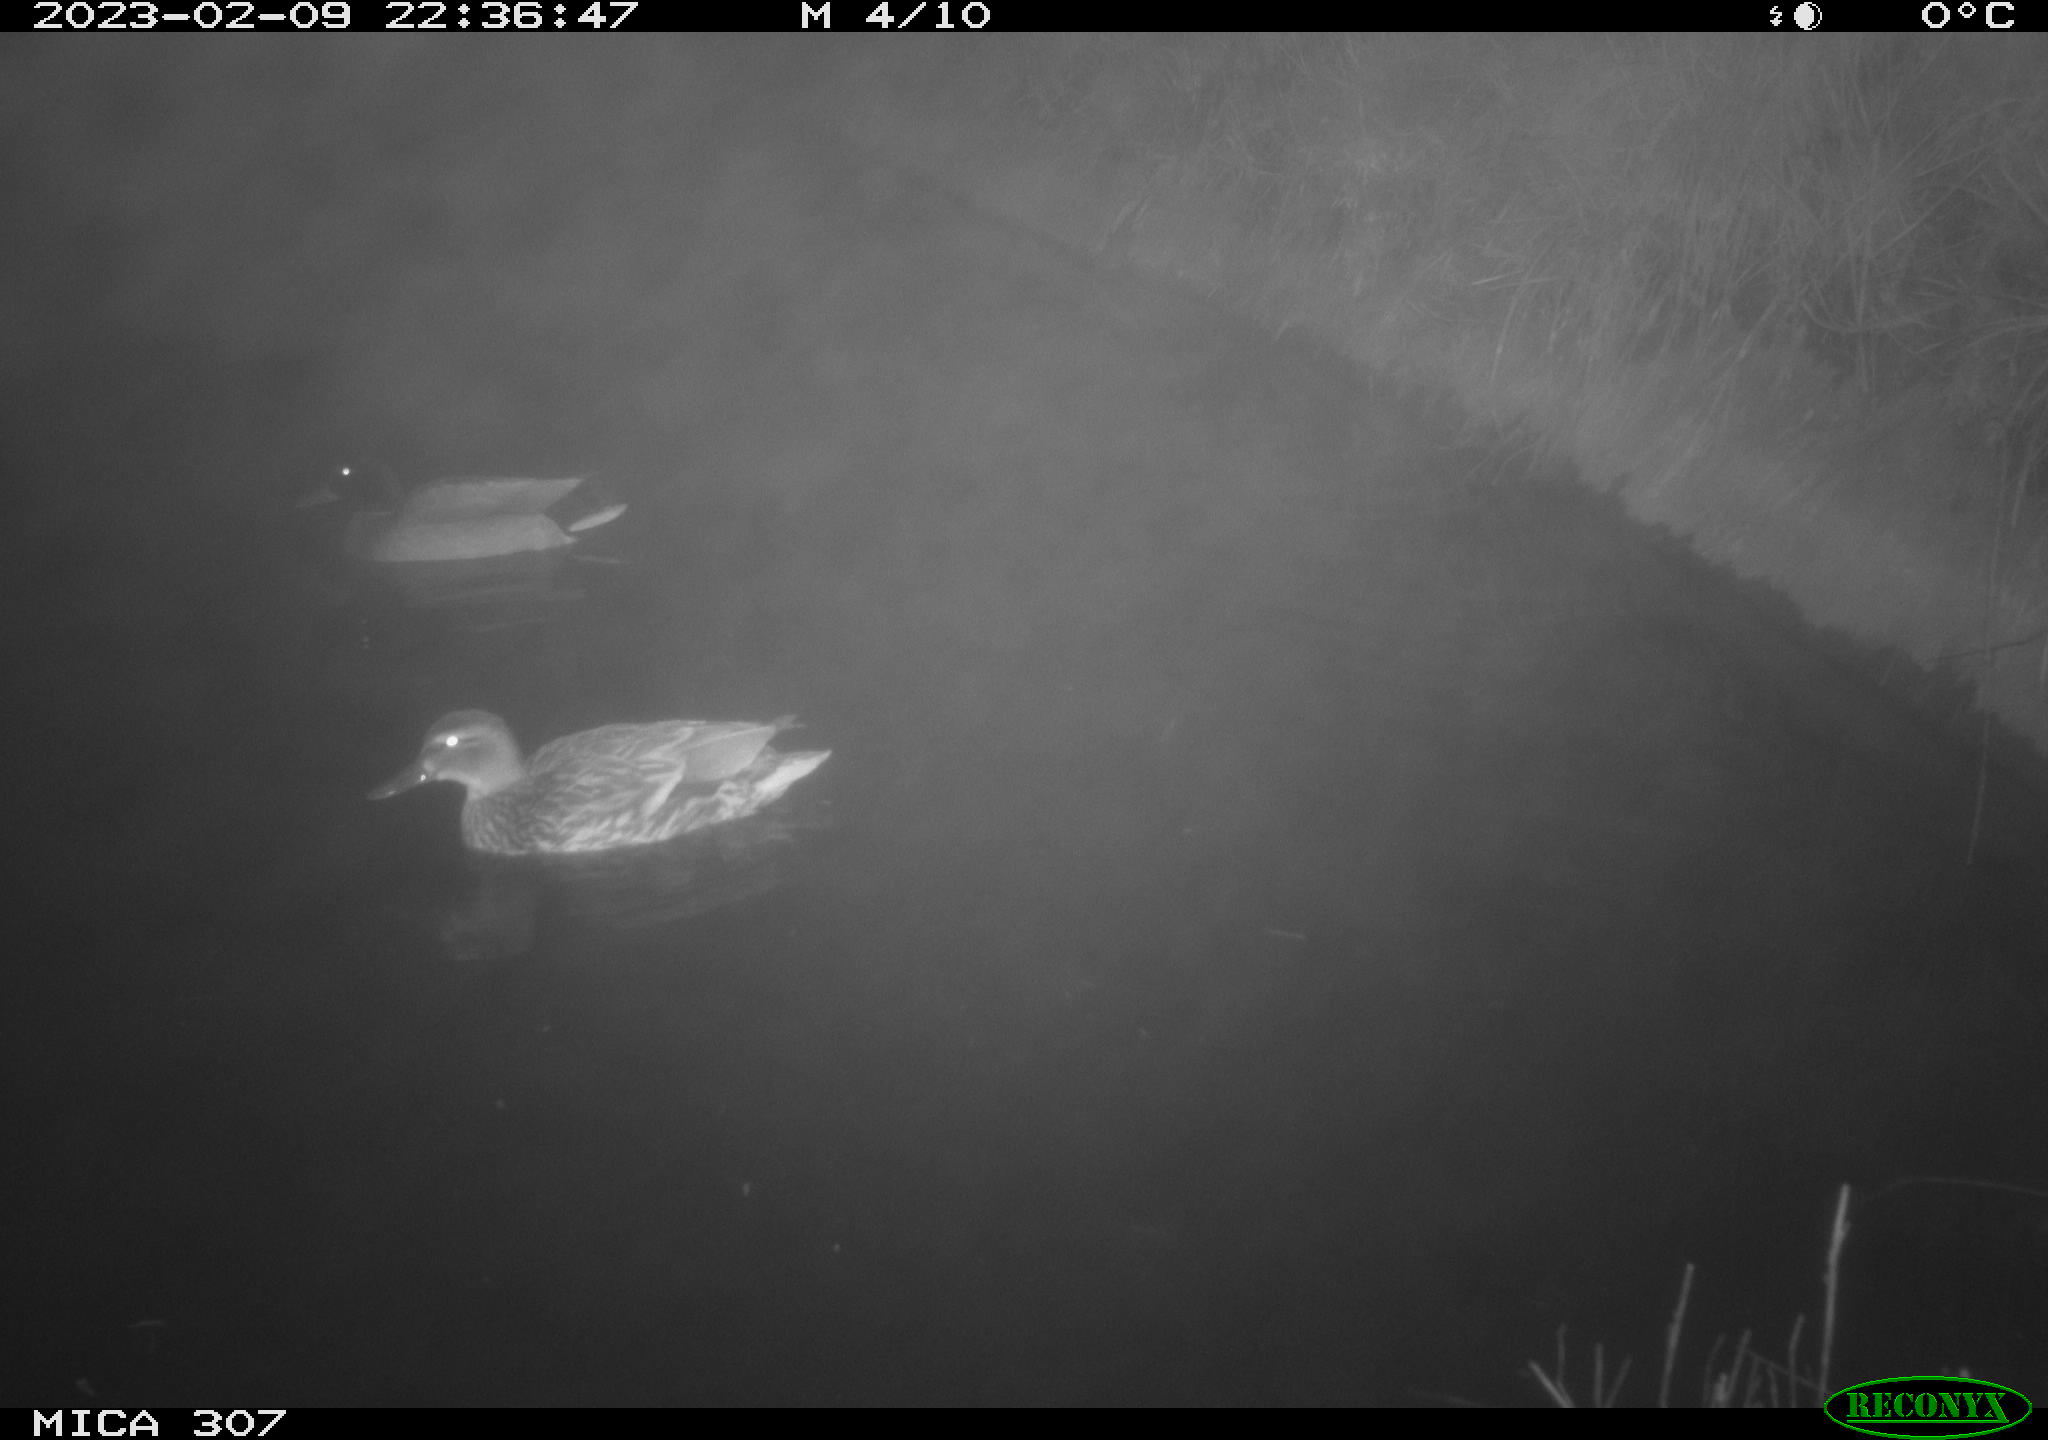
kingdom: Animalia
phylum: Chordata
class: Aves
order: Anseriformes
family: Anatidae
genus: Anas
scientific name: Anas
